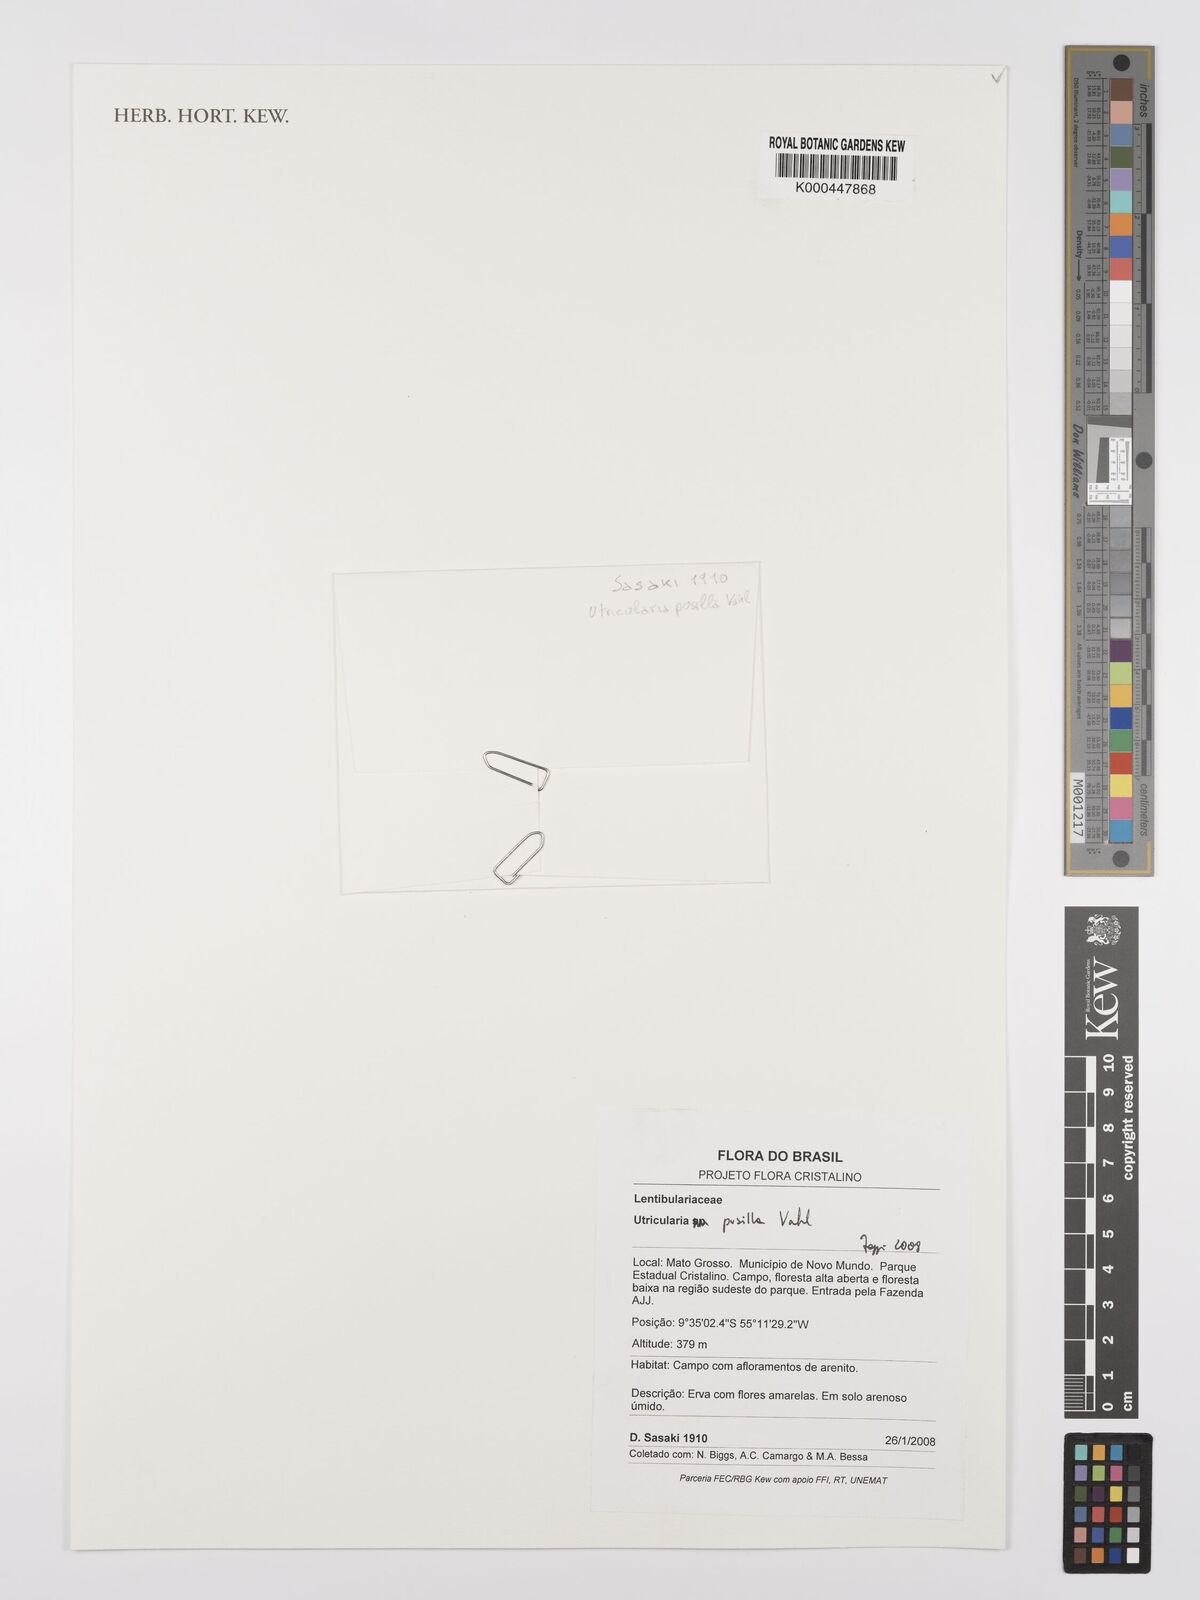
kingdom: Plantae
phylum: Tracheophyta
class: Magnoliopsida
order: Lamiales
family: Lentibulariaceae
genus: Utricularia
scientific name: Utricularia pusilla
